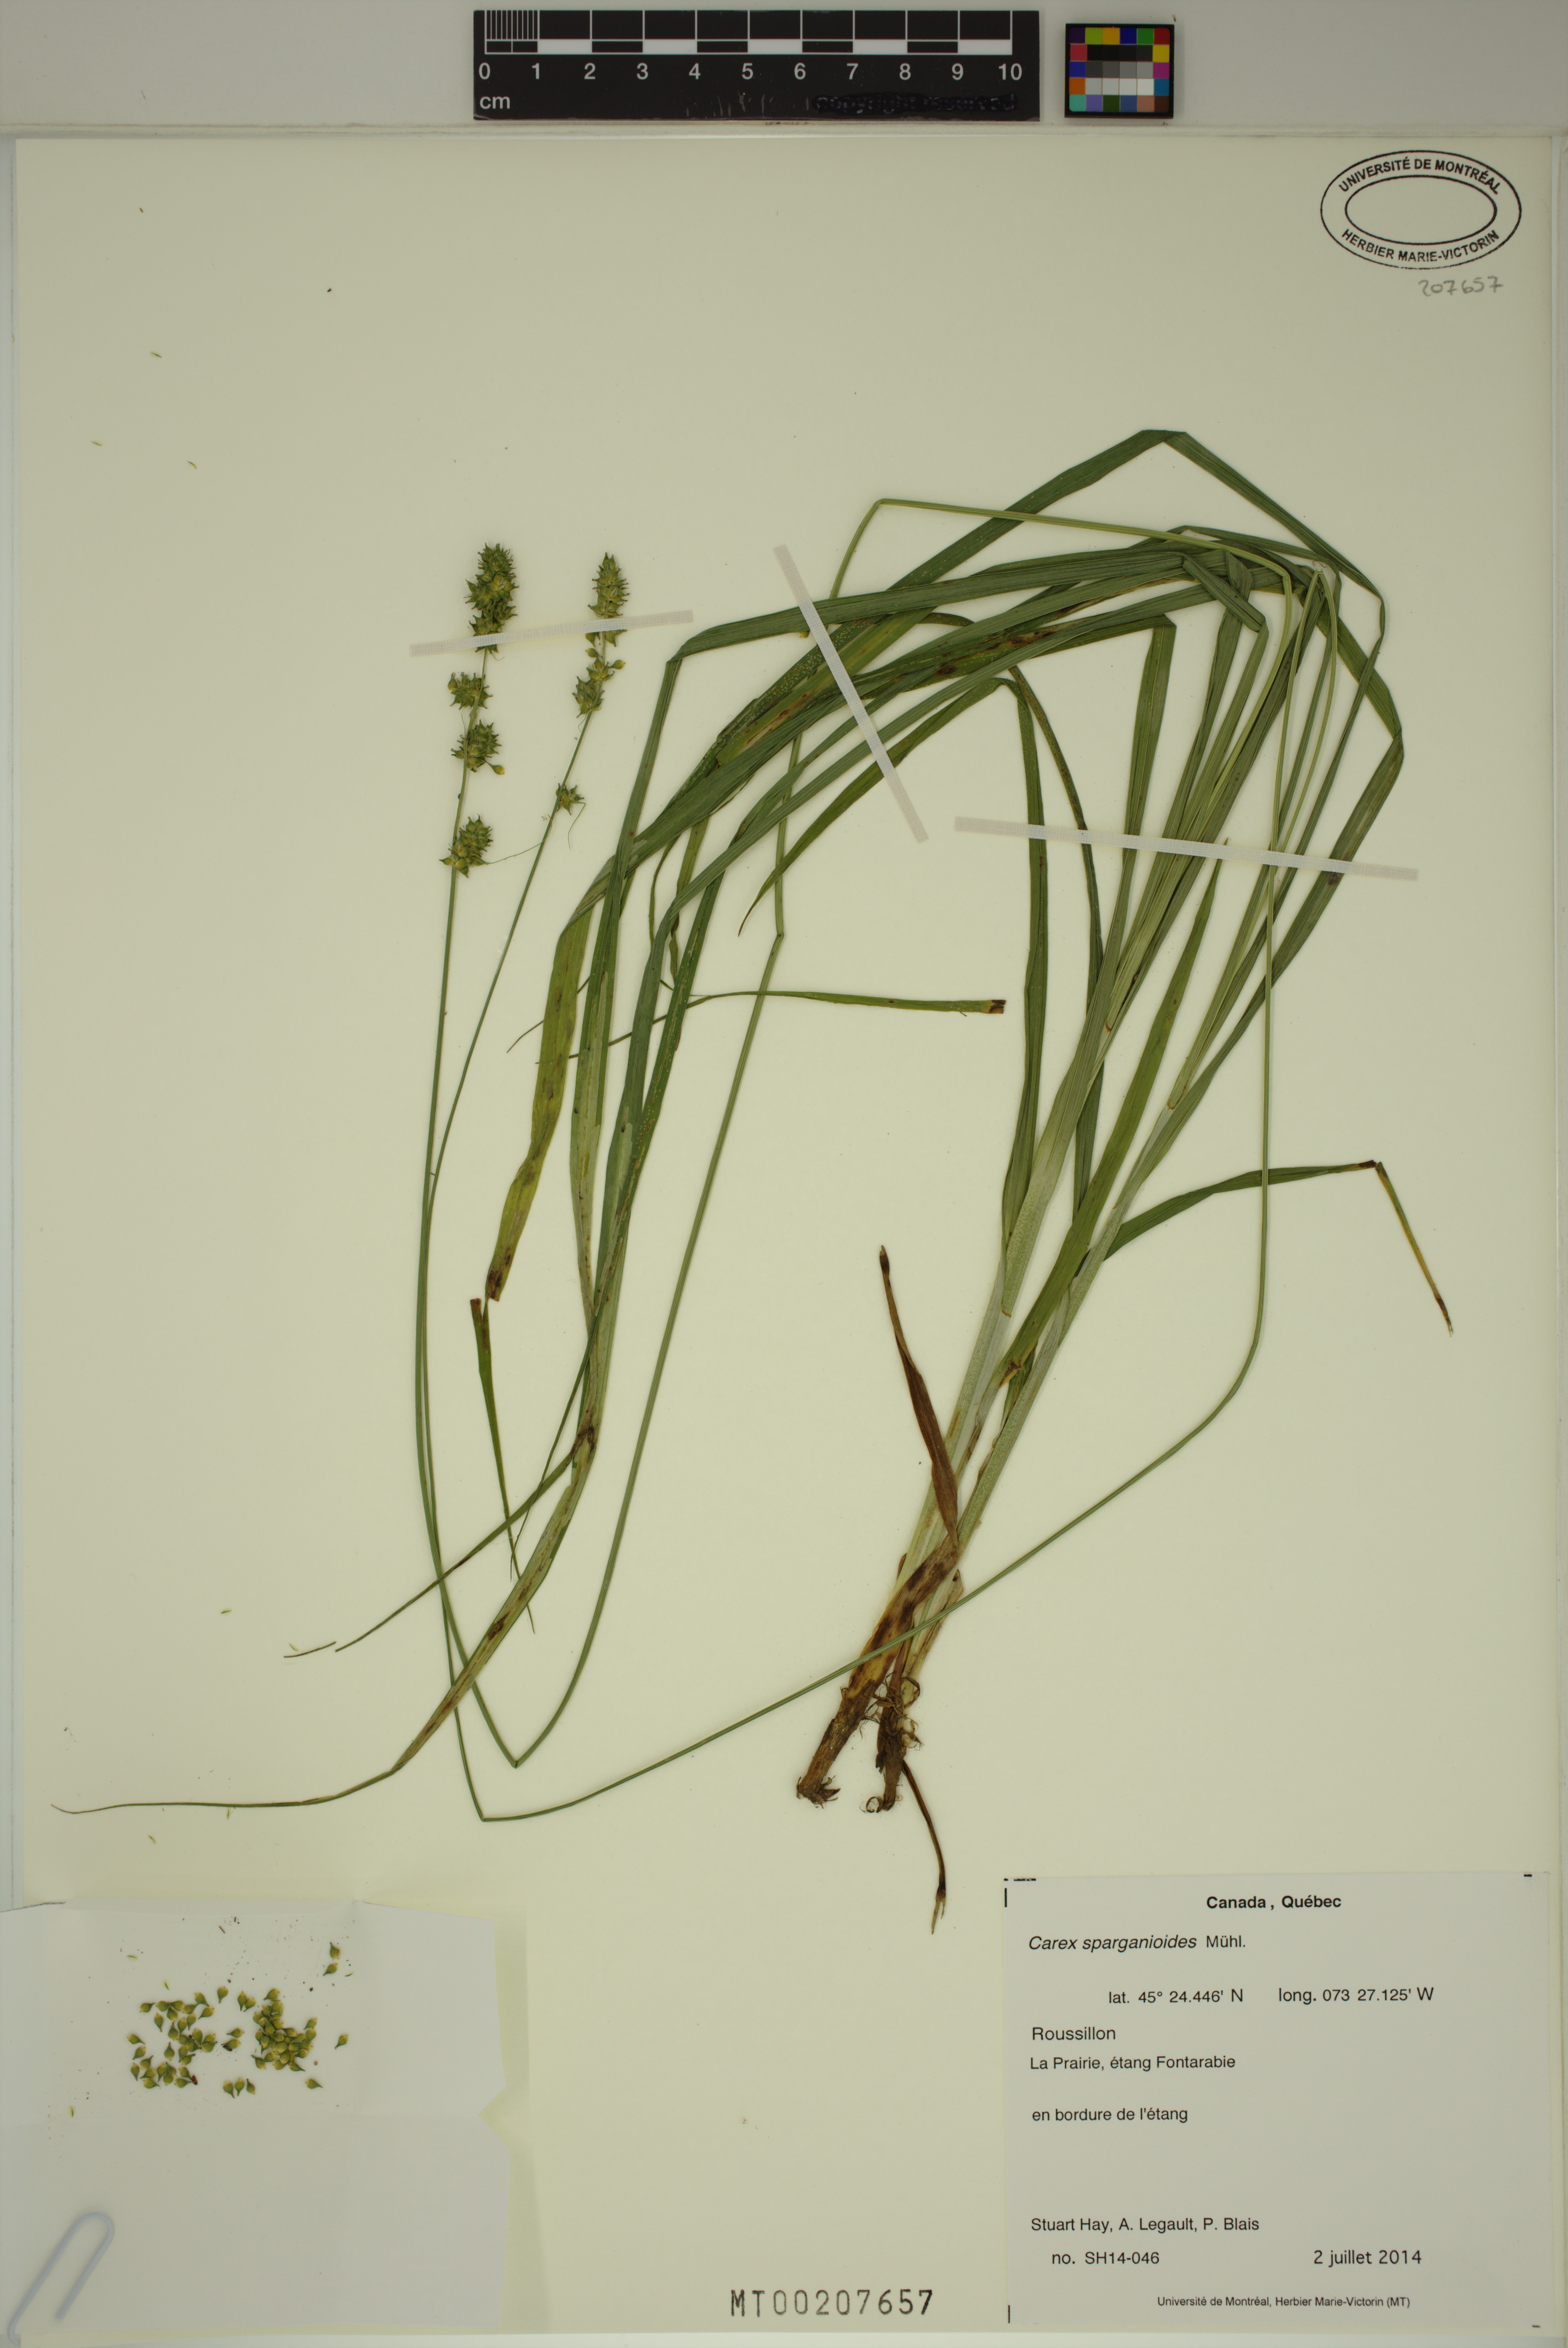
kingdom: Plantae
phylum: Tracheophyta
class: Liliopsida
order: Poales
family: Cyperaceae
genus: Carex
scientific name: Carex sparganioides
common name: Burreed sedge
